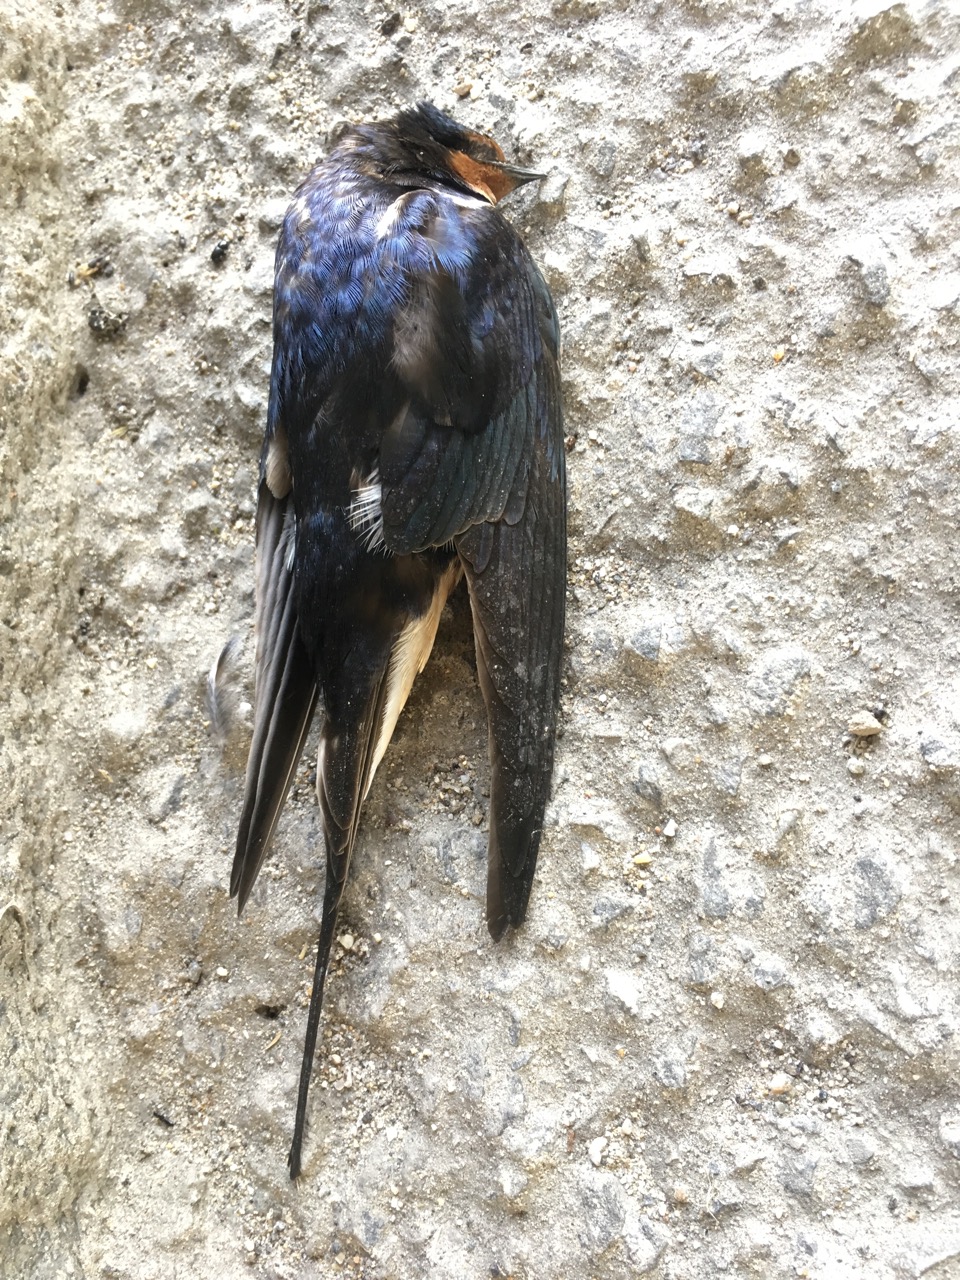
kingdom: Animalia
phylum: Chordata
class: Aves
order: Passeriformes
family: Hirundinidae
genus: Hirundo
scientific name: Hirundo rustica
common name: Barn swallow
